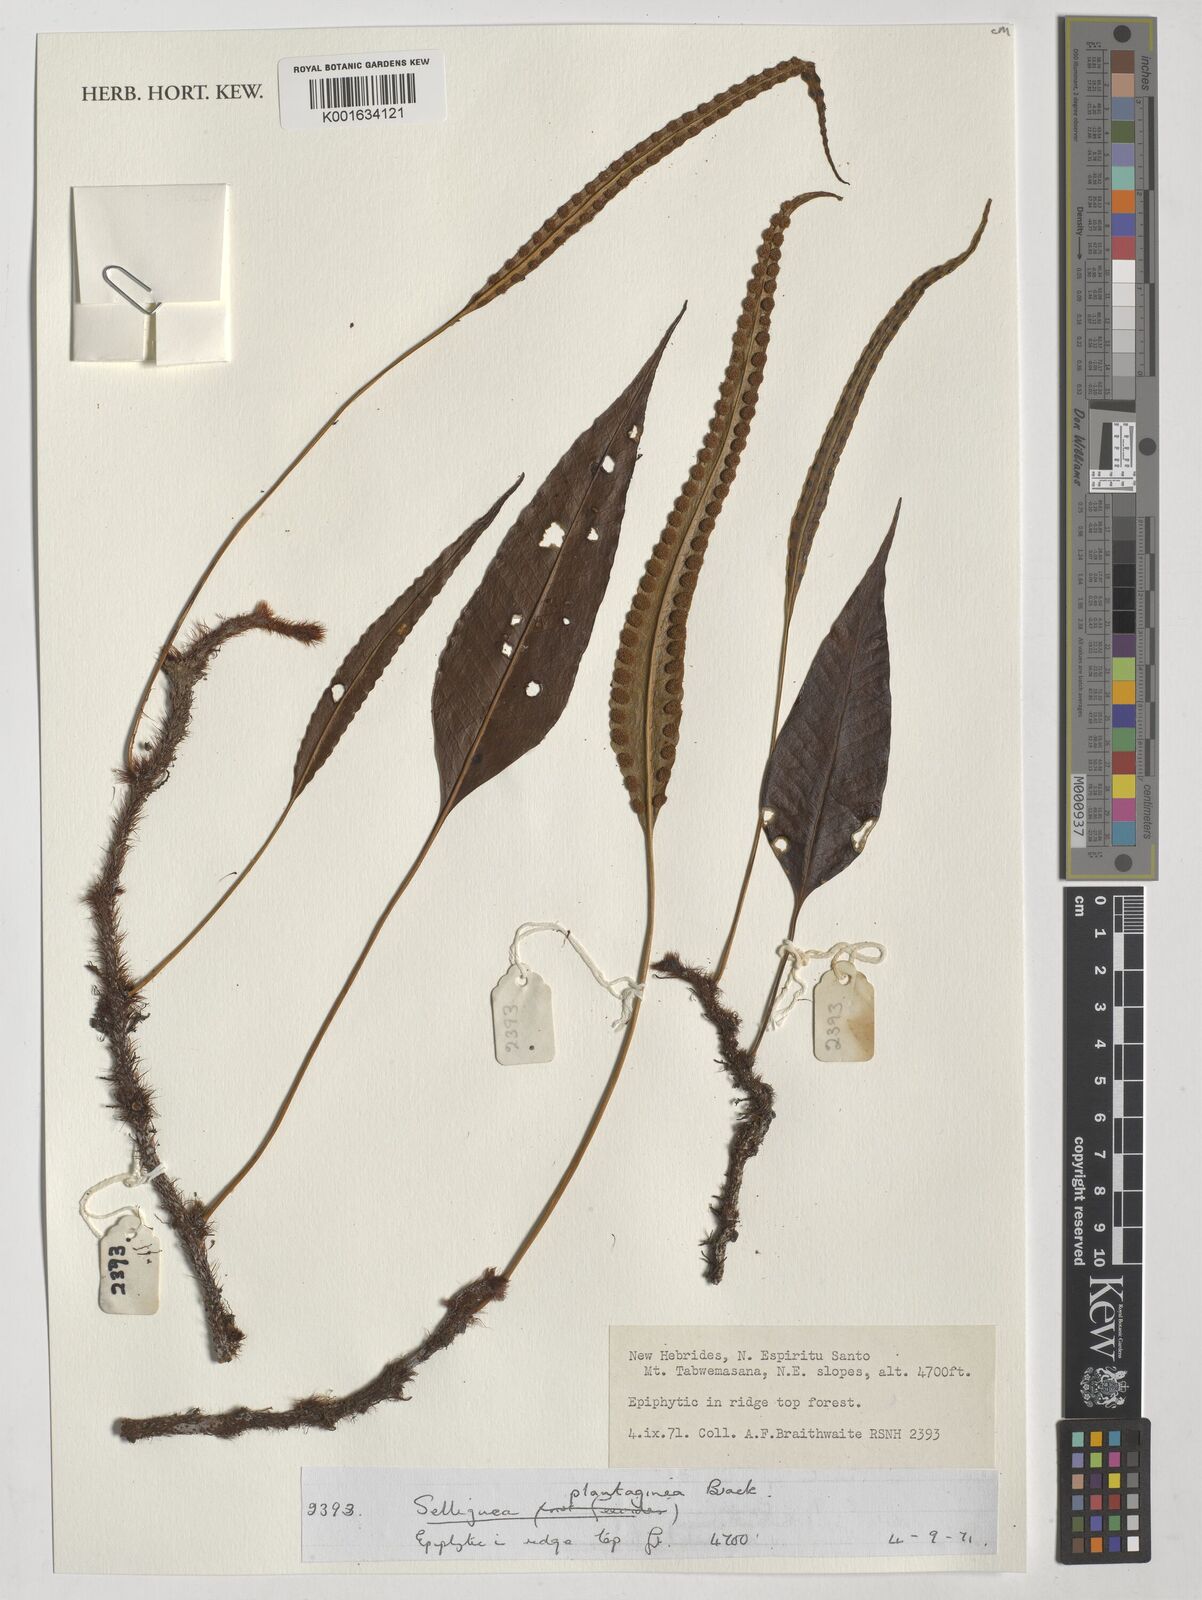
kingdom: Plantae
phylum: Tracheophyta
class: Polypodiopsida
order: Polypodiales
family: Polypodiaceae
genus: Selliguea
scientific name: Selliguea plantaginea
